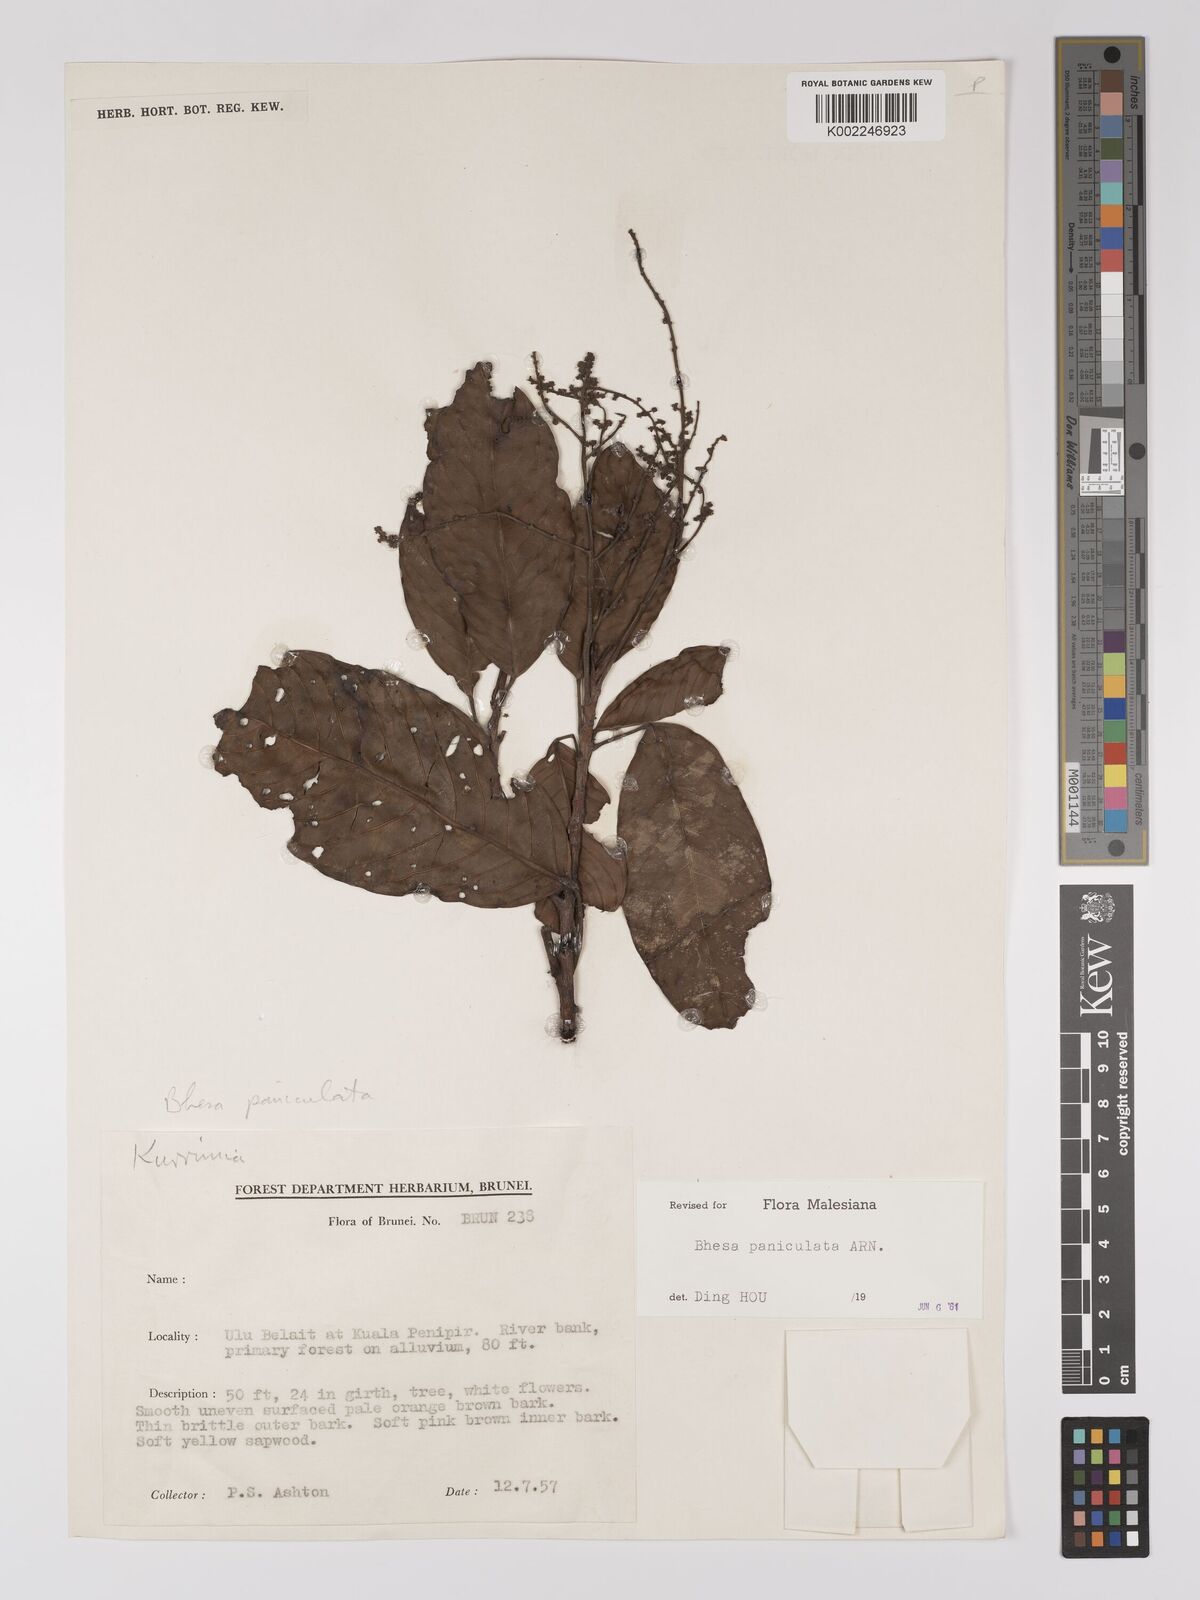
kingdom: Plantae
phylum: Tracheophyta
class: Magnoliopsida
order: Malpighiales
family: Centroplacaceae
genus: Bhesa
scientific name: Bhesa paniculata
